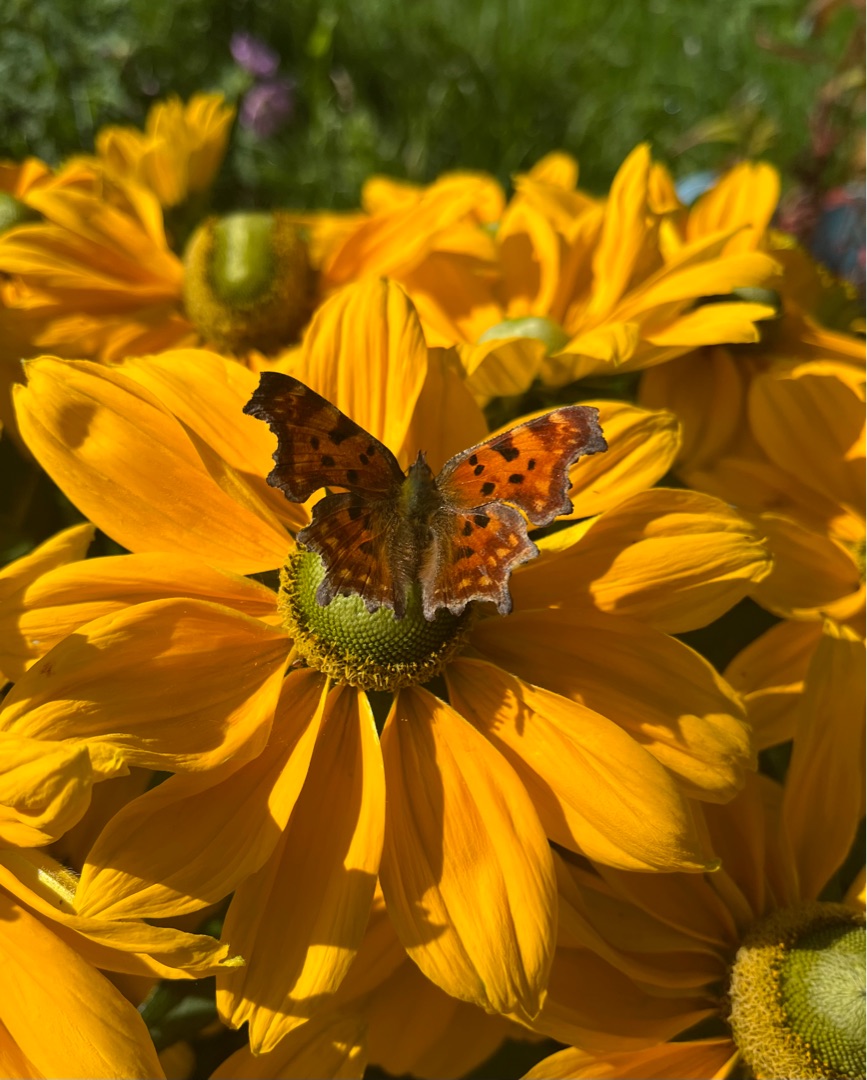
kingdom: Animalia
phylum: Arthropoda
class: Insecta
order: Lepidoptera
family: Nymphalidae
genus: Polygonia
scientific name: Polygonia c-album
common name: Det hvide C
